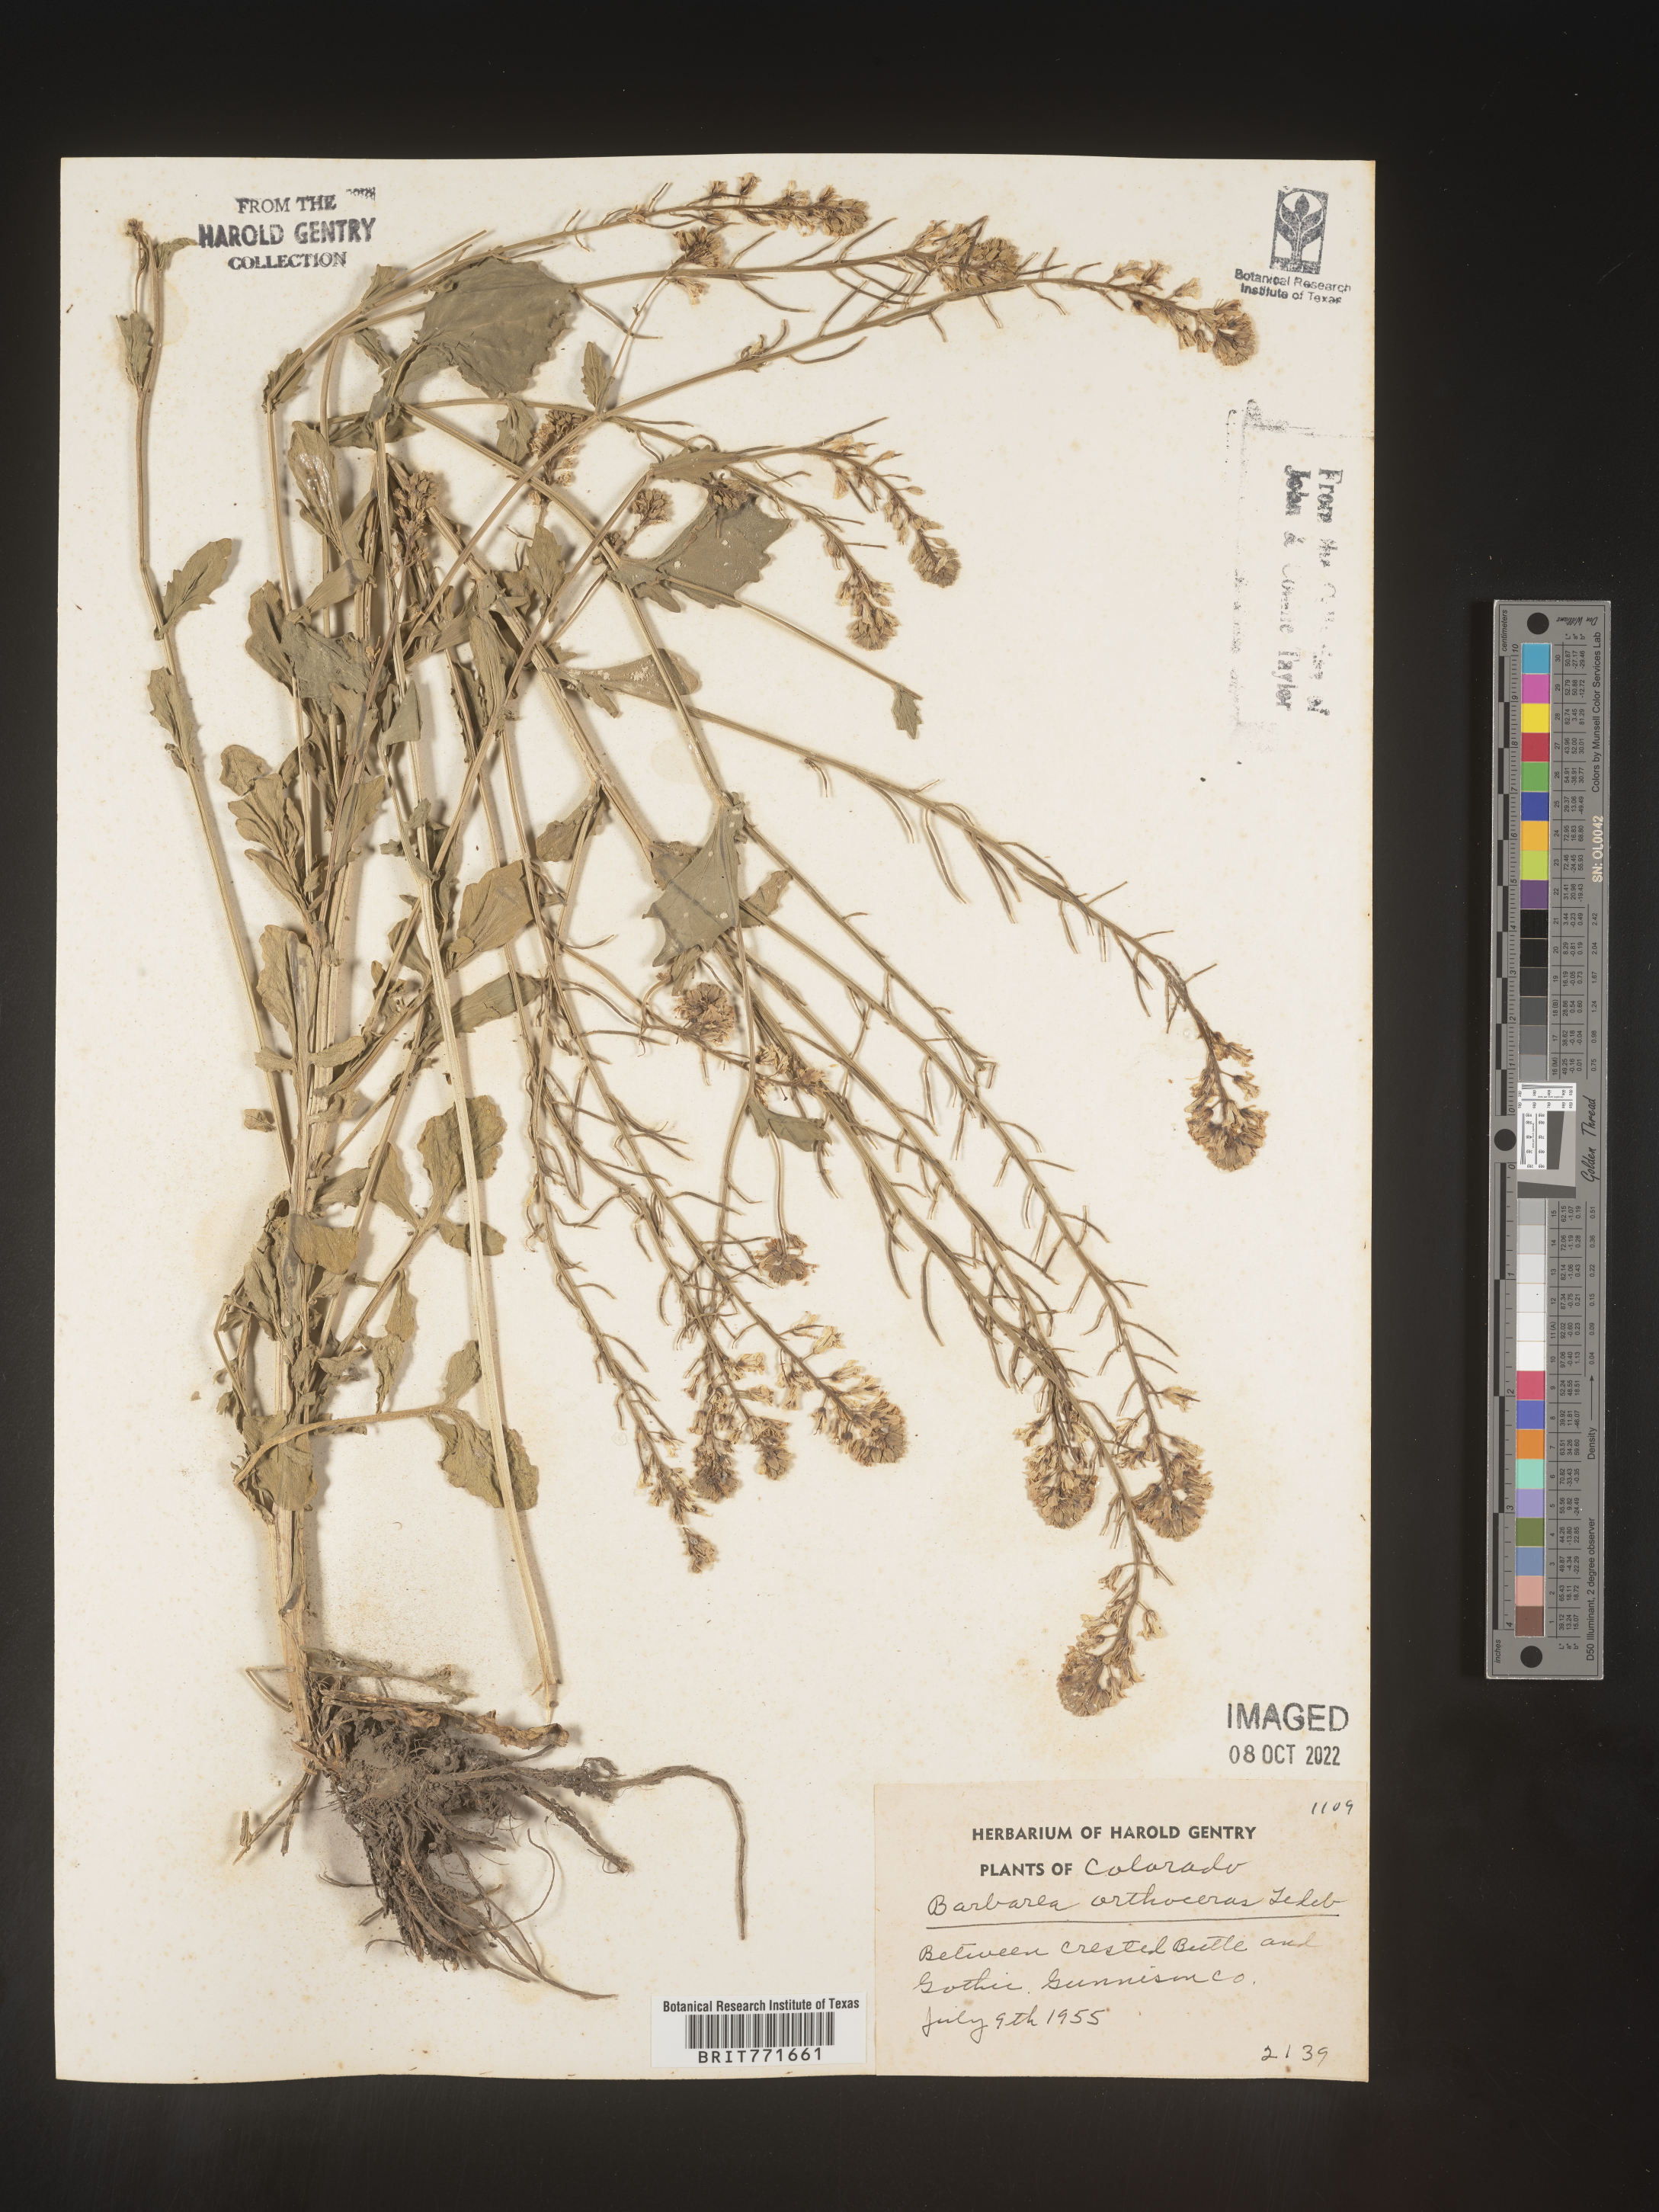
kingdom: Plantae
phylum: Tracheophyta
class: Magnoliopsida
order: Brassicales
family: Brassicaceae
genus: Barbarea
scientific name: Barbarea
